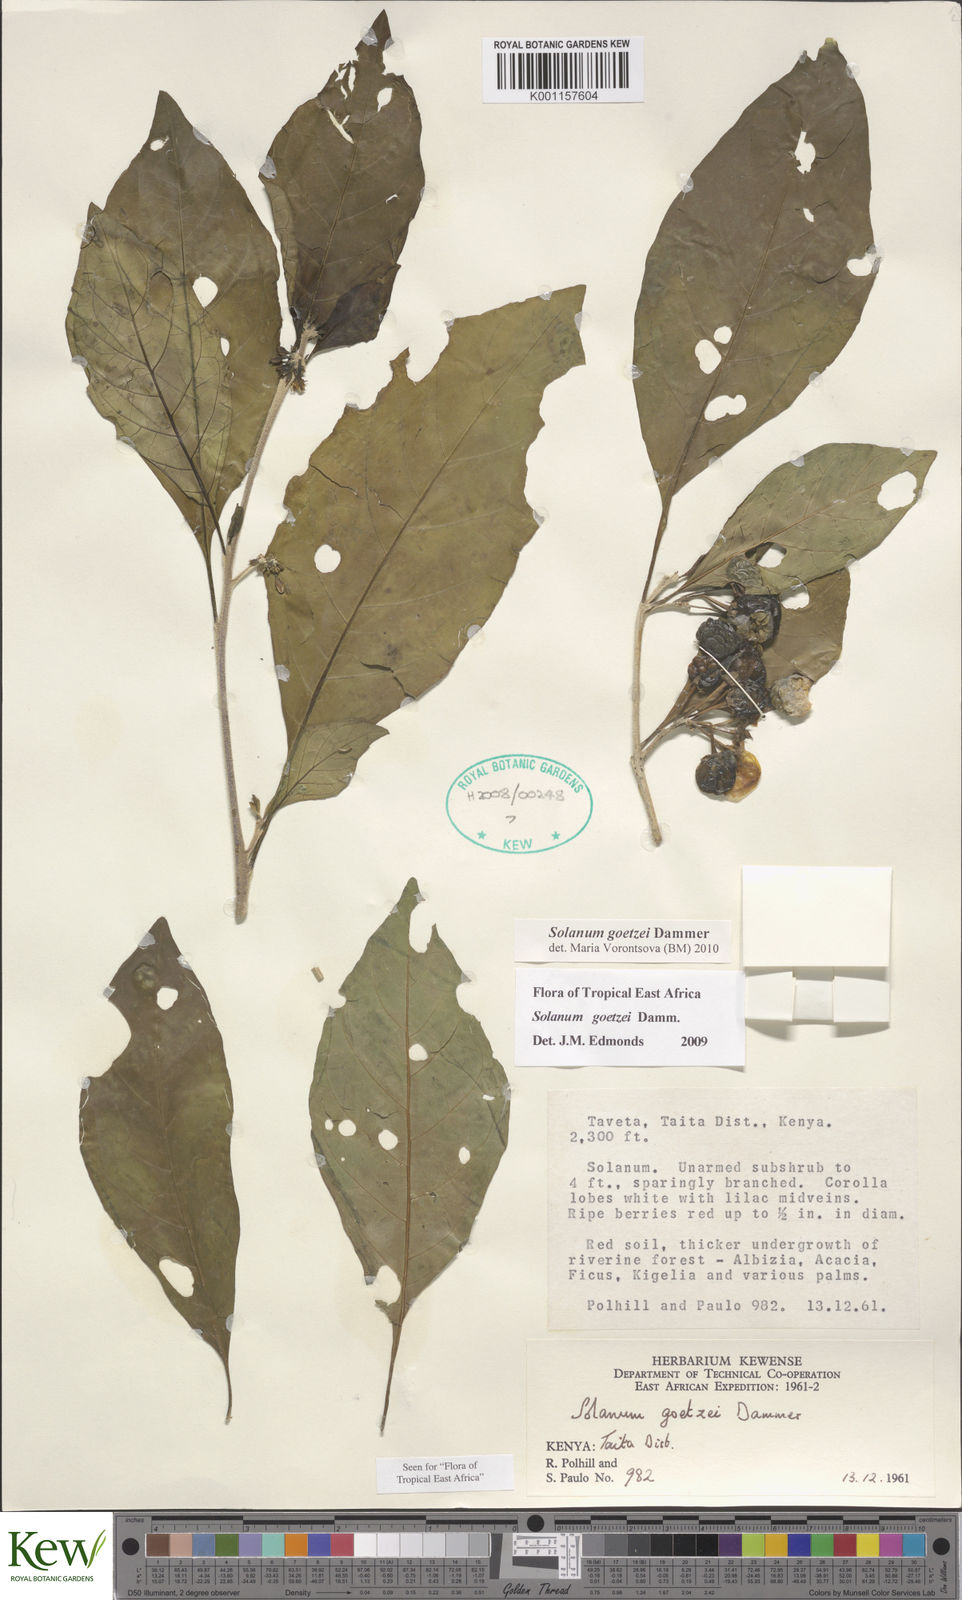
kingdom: Plantae
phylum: Tracheophyta
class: Magnoliopsida
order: Solanales
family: Solanaceae
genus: Solanum
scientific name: Solanum goetzei
